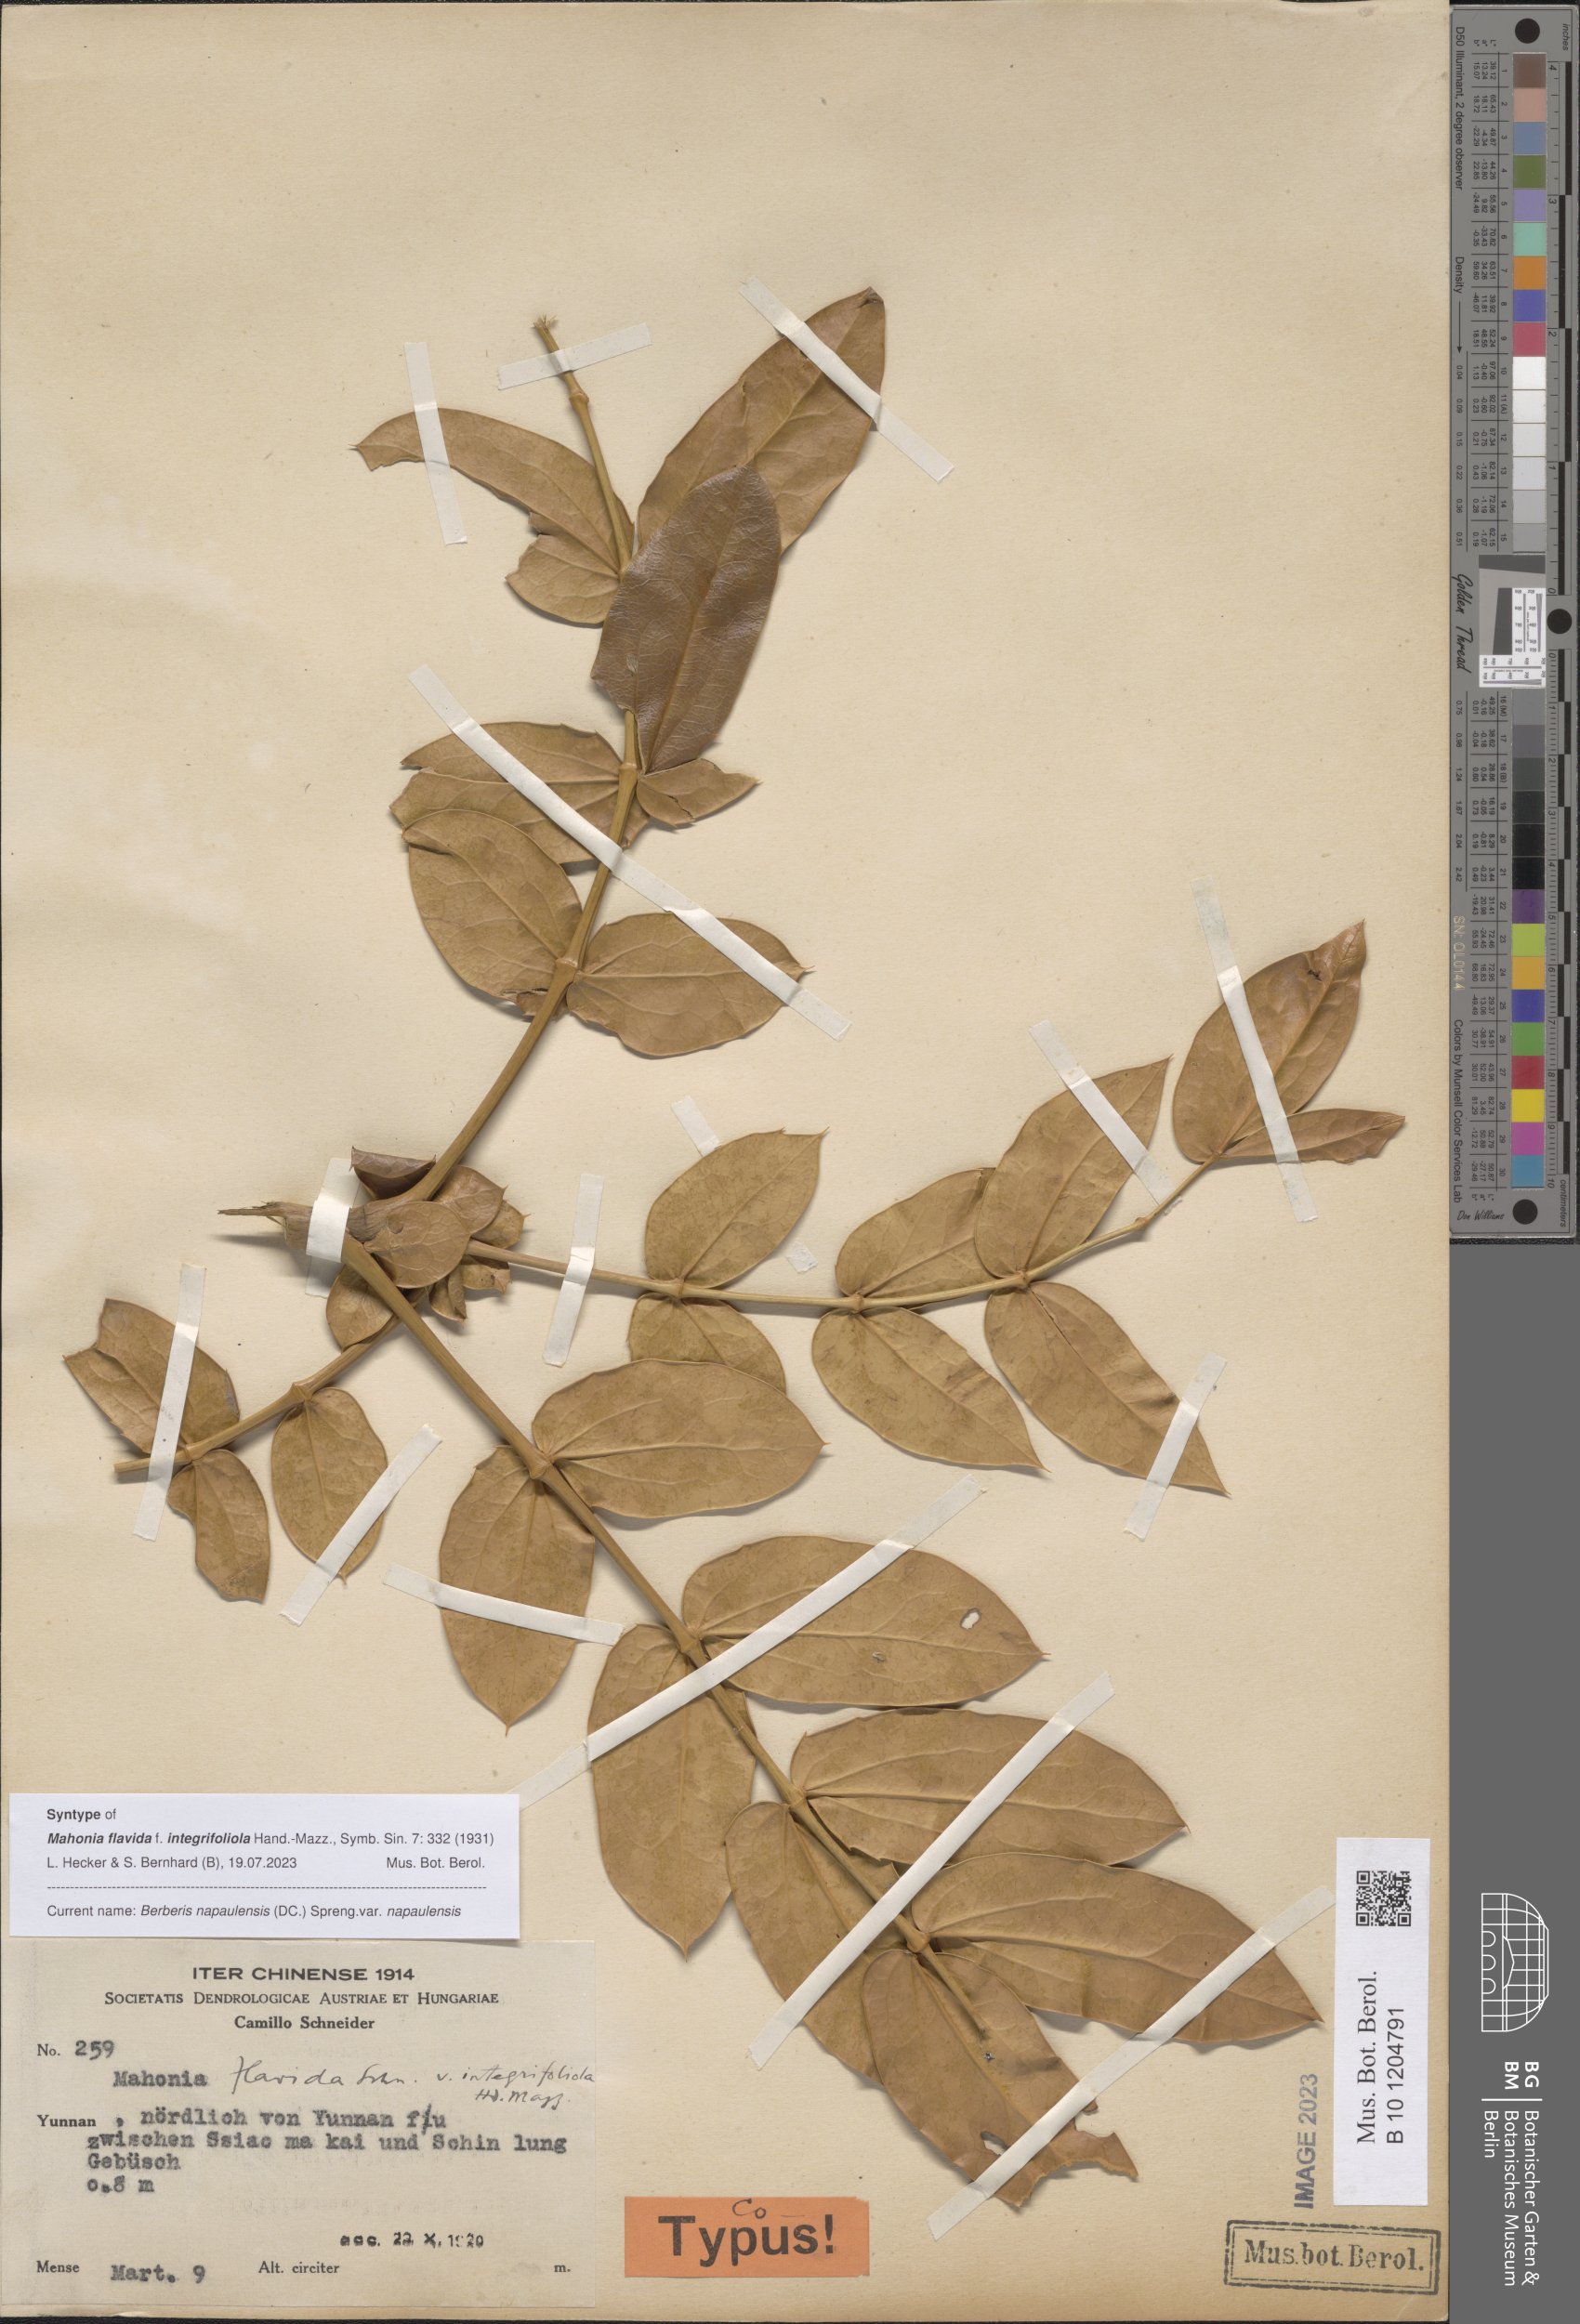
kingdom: Plantae
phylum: Tracheophyta
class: Magnoliopsida
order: Ranunculales
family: Berberidaceae
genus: Mahonia
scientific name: Mahonia napaulensis
